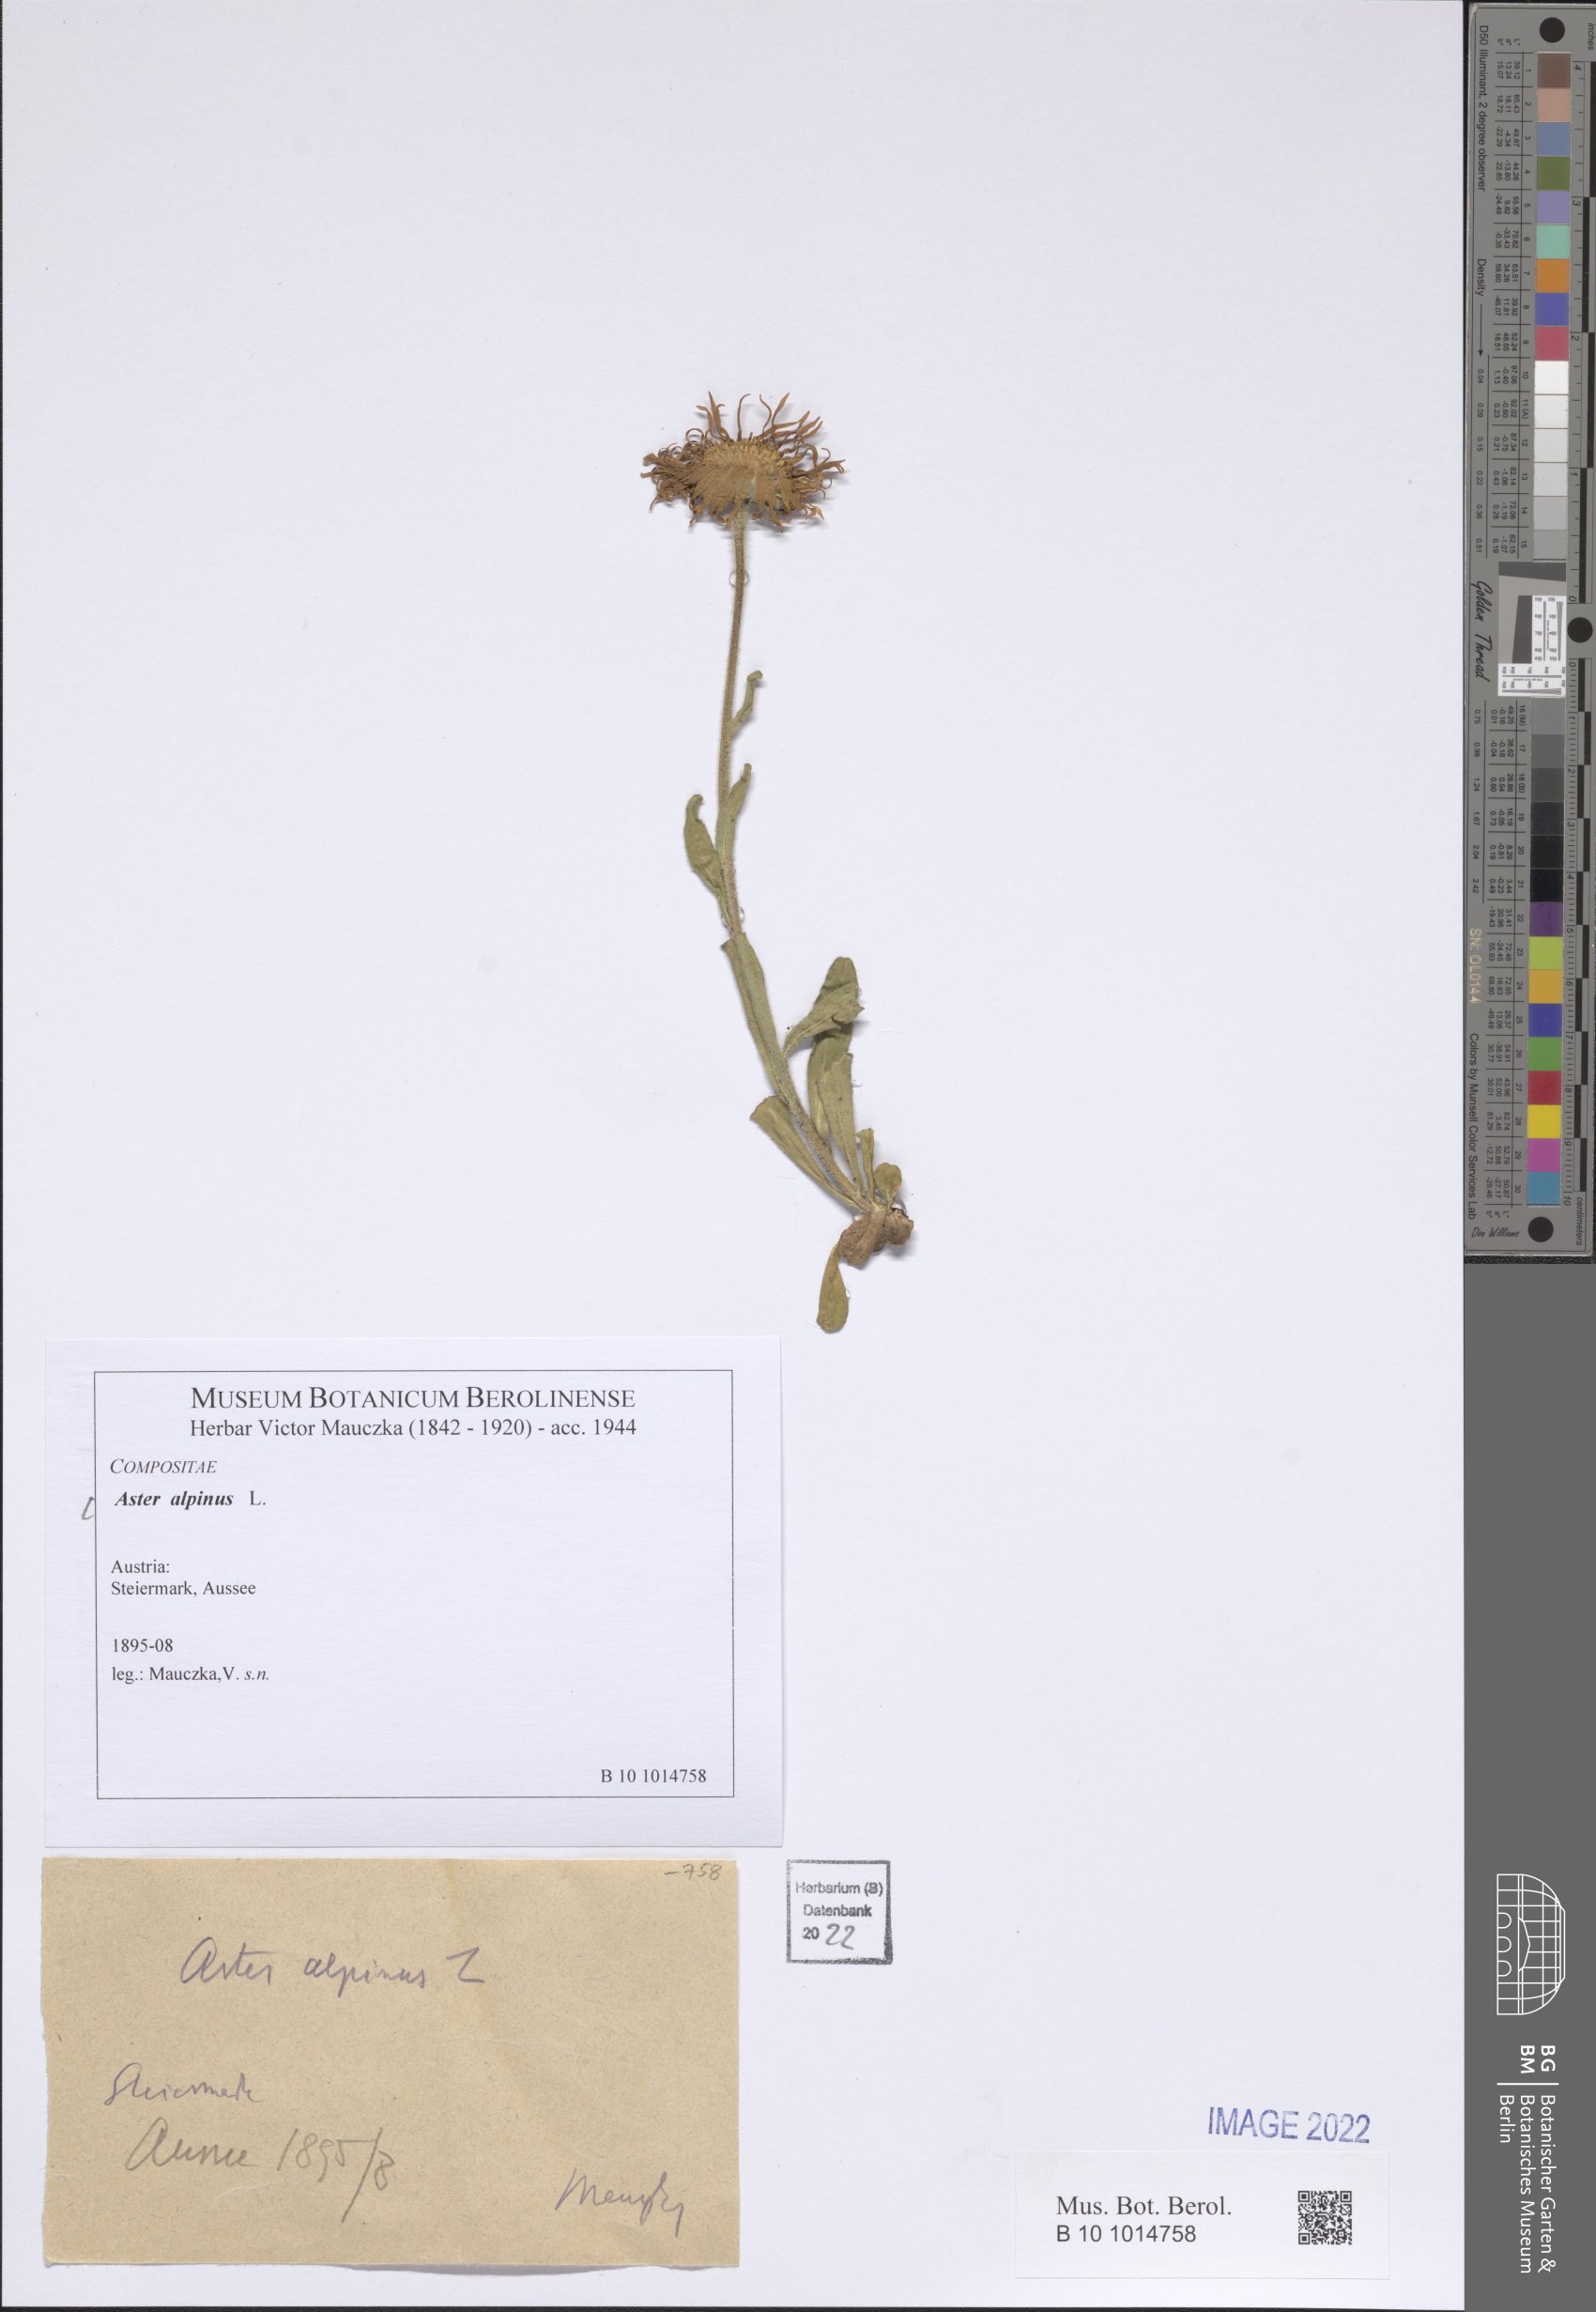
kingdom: Plantae
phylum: Tracheophyta
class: Magnoliopsida
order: Asterales
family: Asteraceae
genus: Aster
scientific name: Aster alpinus
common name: Alpine aster
